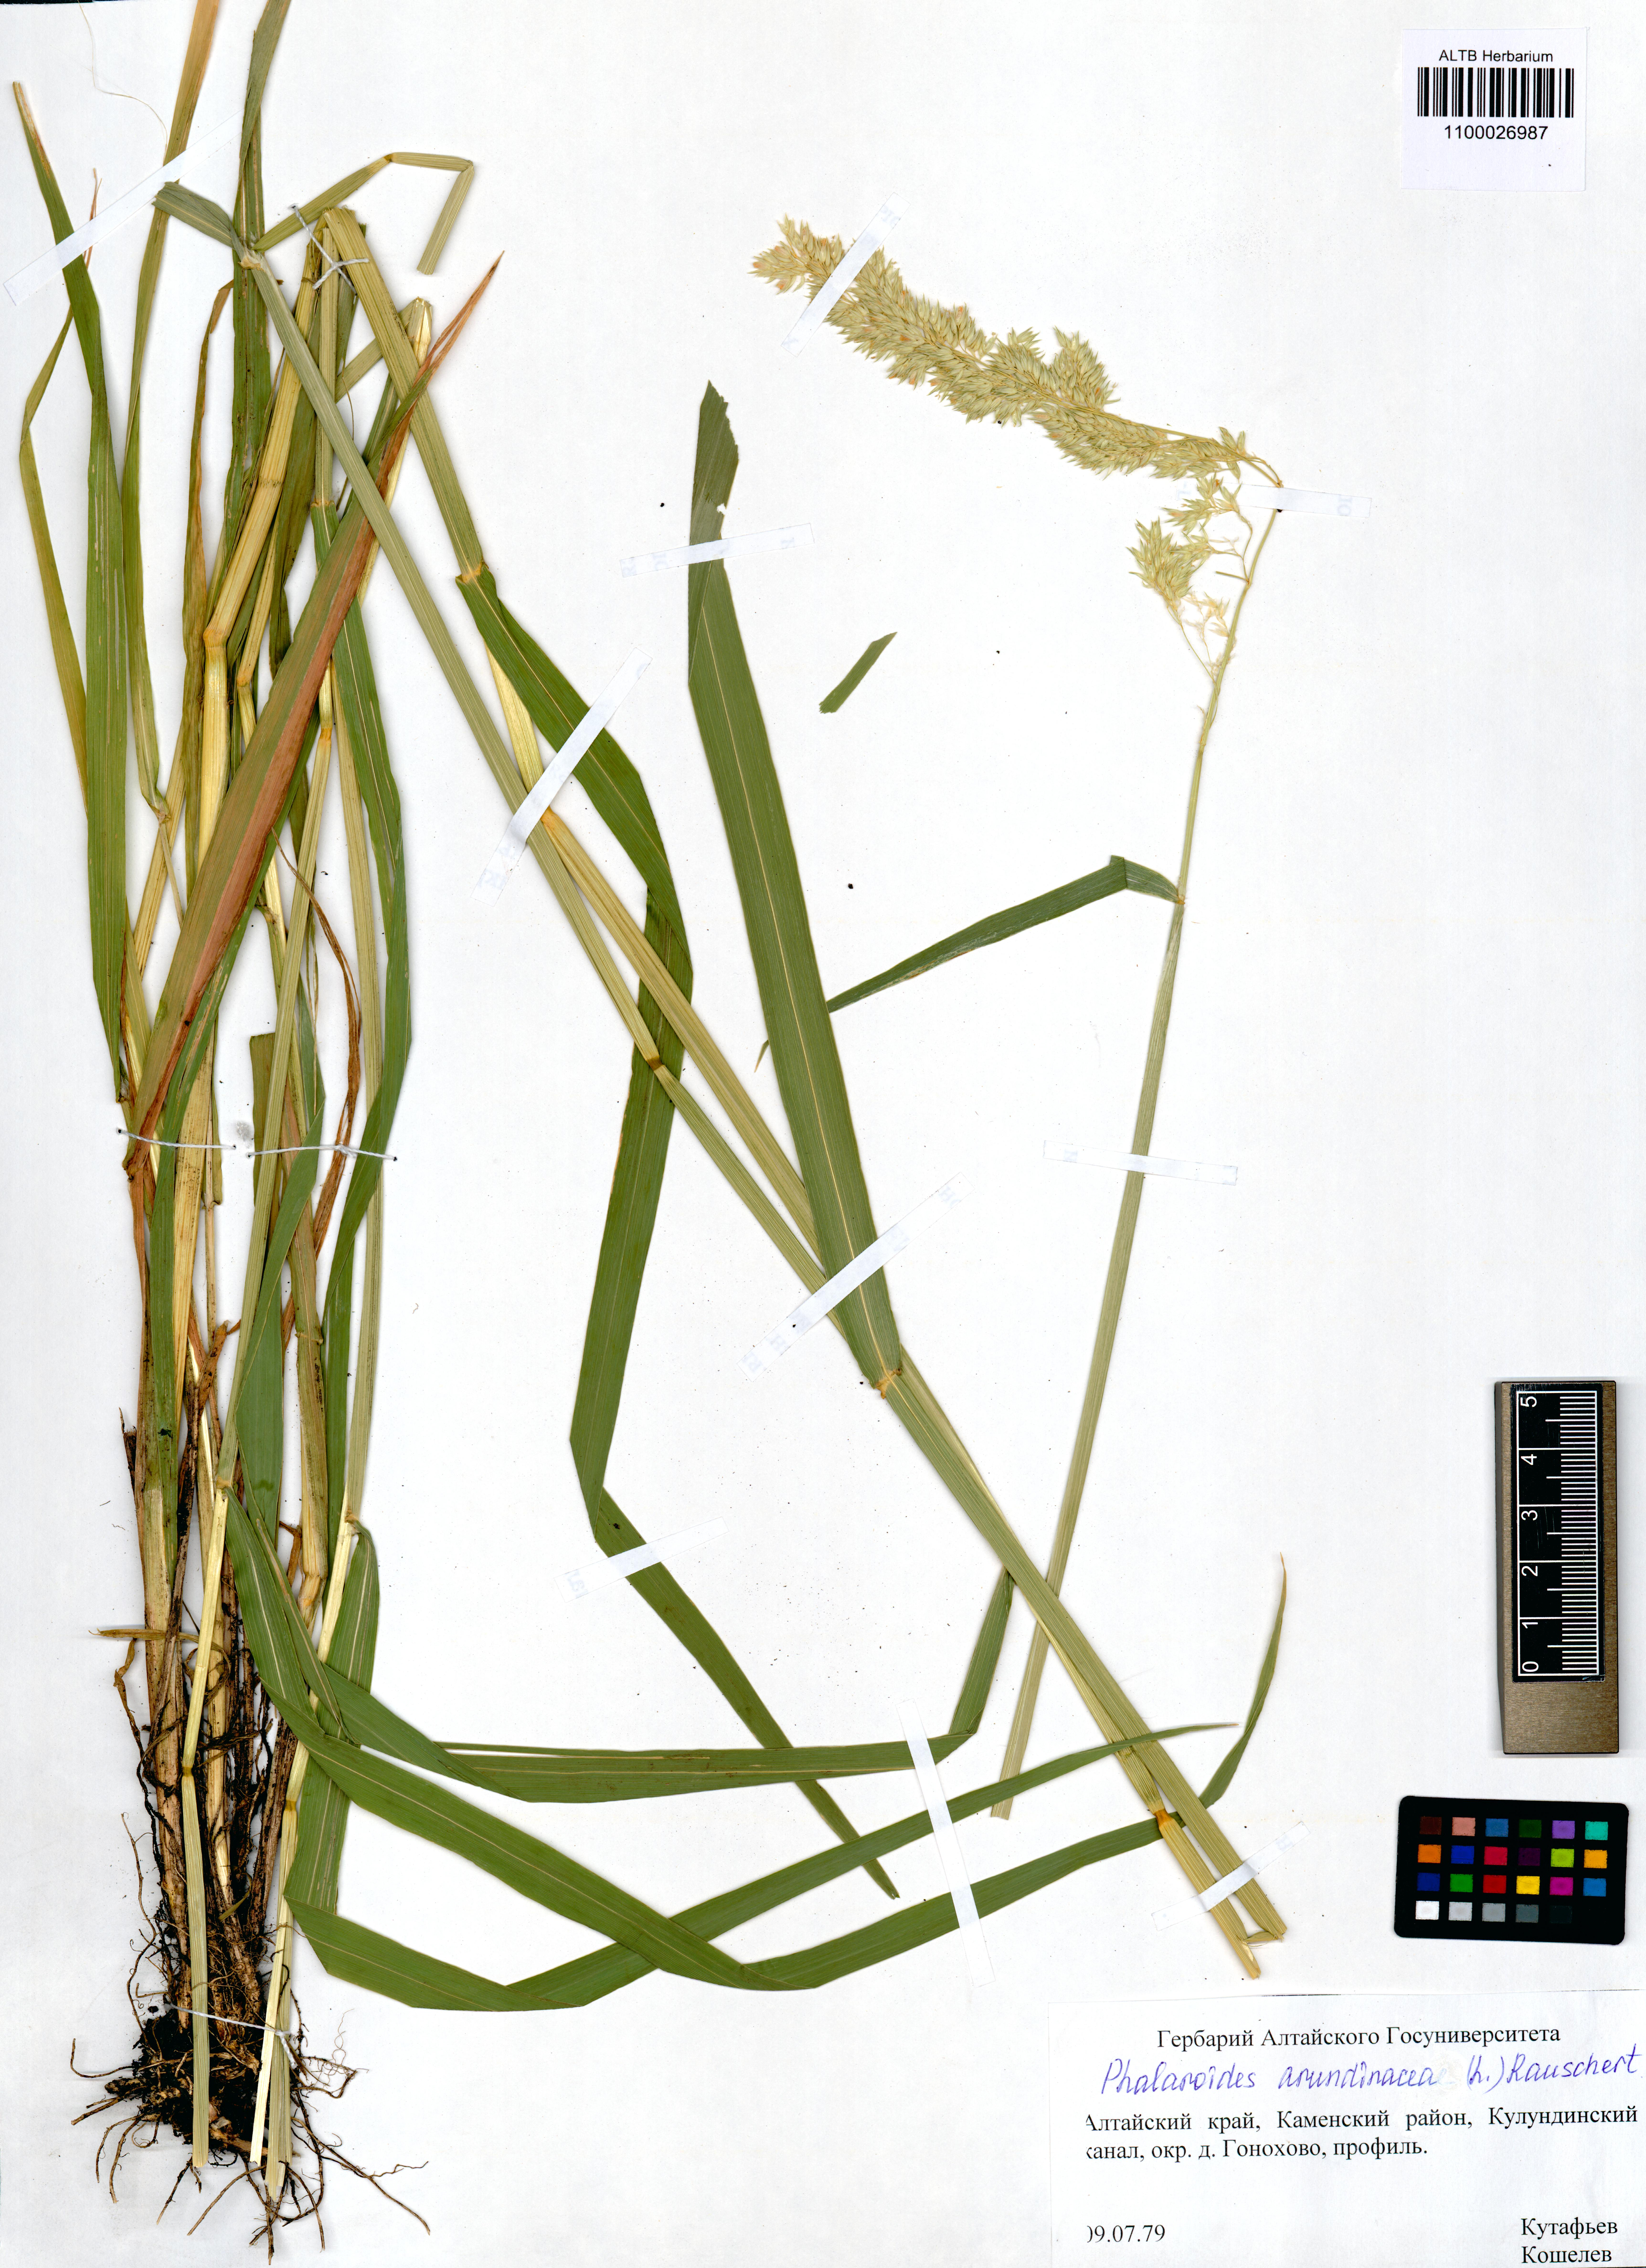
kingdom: Plantae
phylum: Tracheophyta
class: Liliopsida
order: Poales
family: Poaceae
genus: Phalaris
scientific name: Phalaris arundinacea
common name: Reed canary-grass
